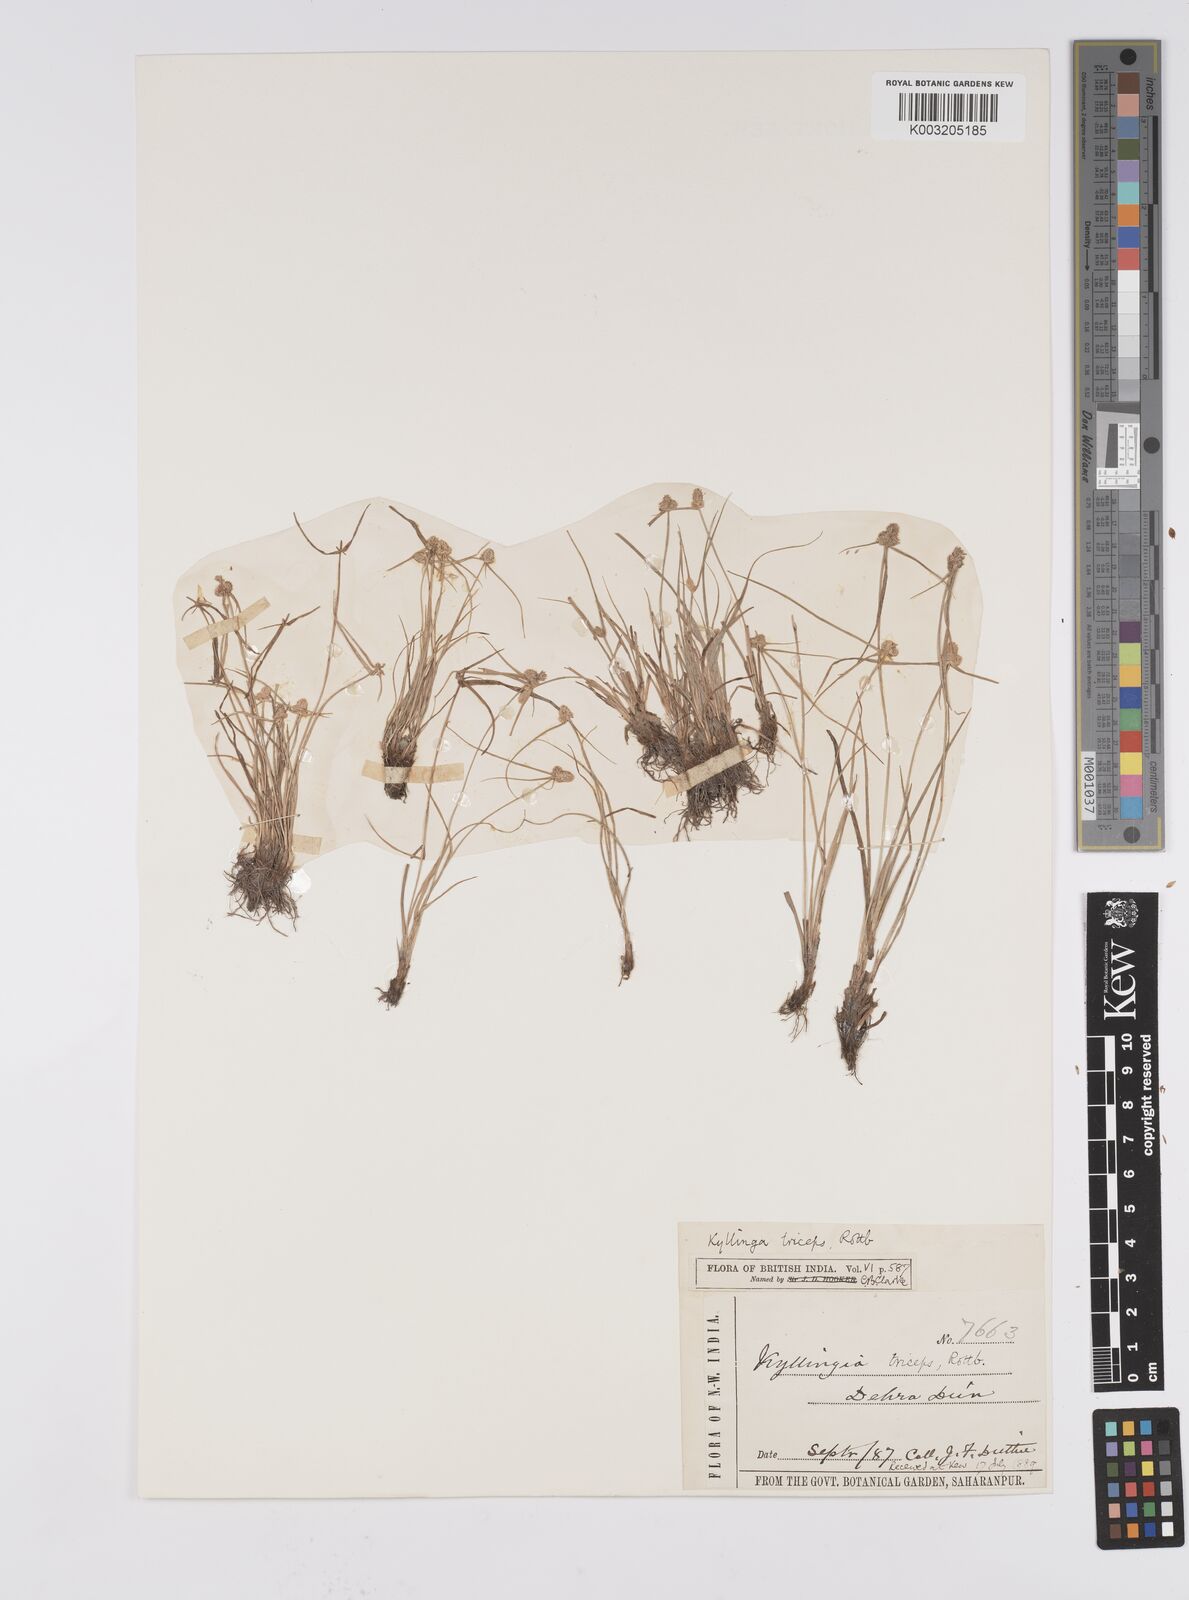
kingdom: Plantae
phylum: Tracheophyta
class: Liliopsida
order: Poales
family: Cyperaceae
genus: Cyperus
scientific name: Cyperus
